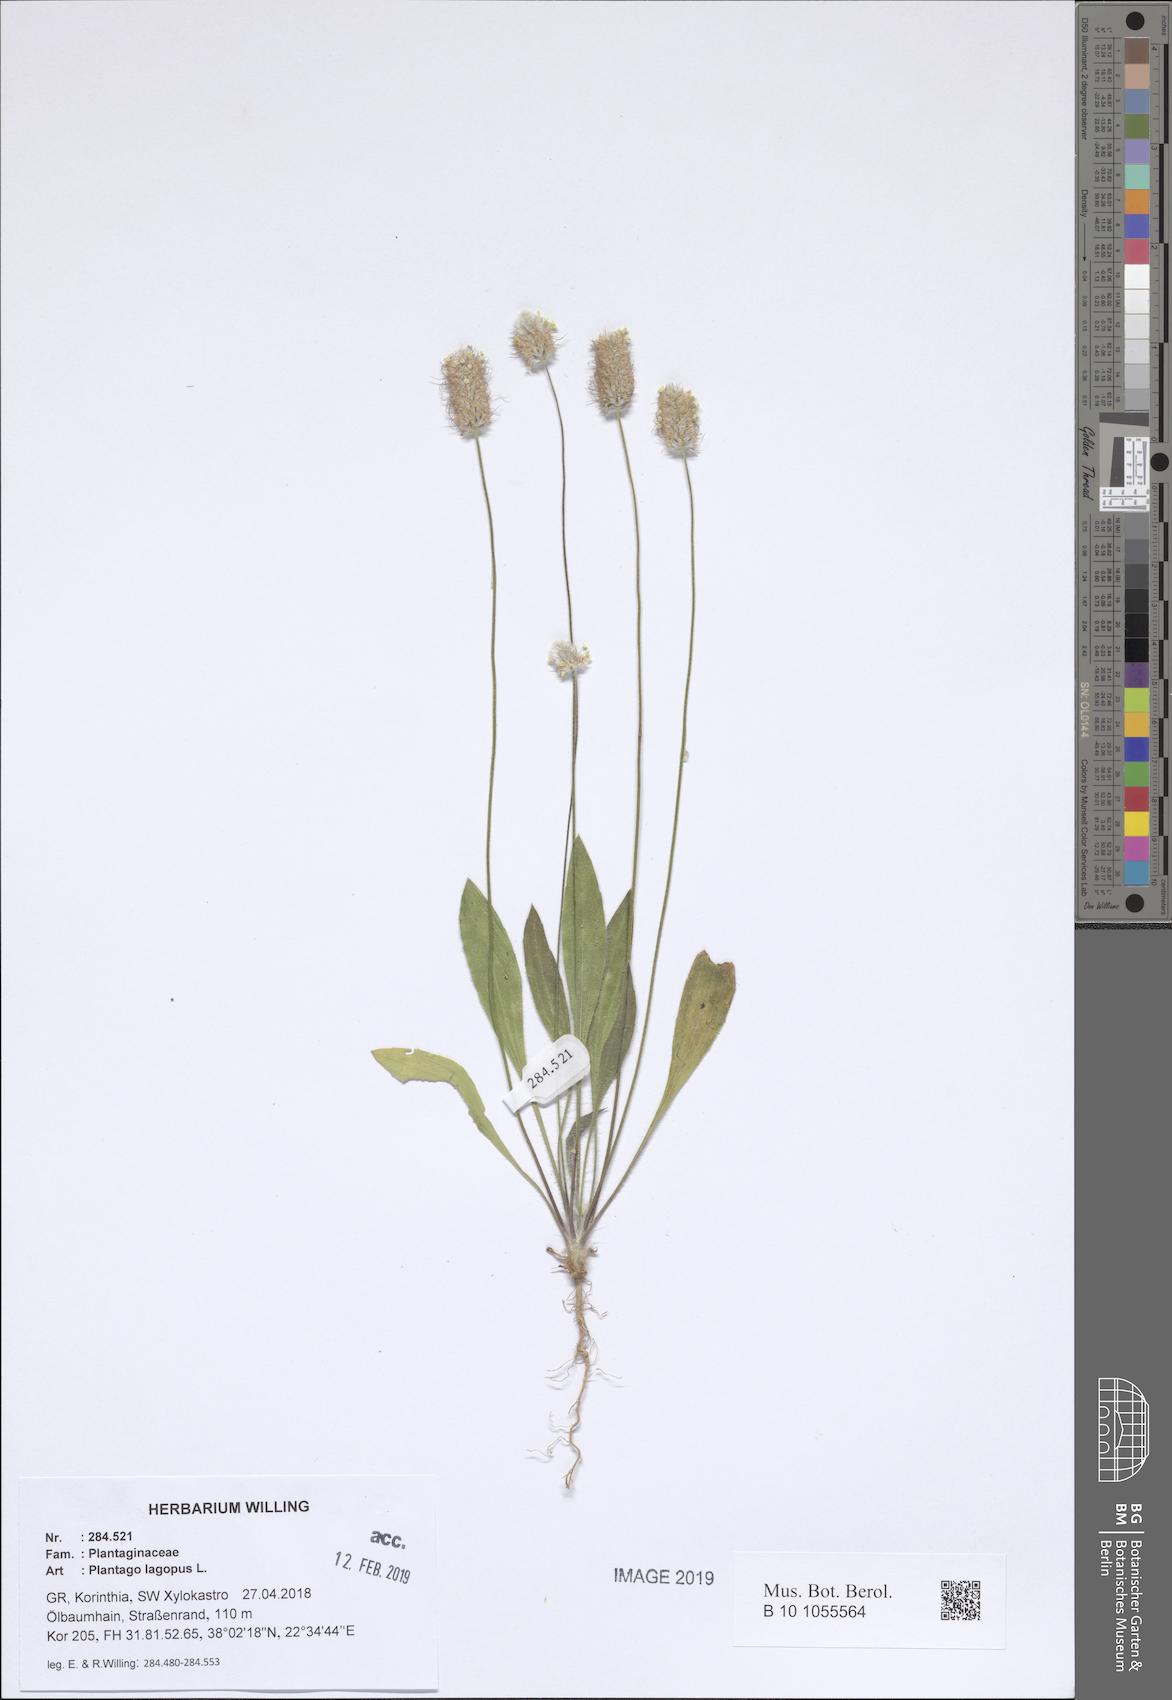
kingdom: Plantae
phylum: Tracheophyta
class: Magnoliopsida
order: Lamiales
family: Plantaginaceae
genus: Plantago
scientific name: Plantago lagopus
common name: Hare-foot plantain
